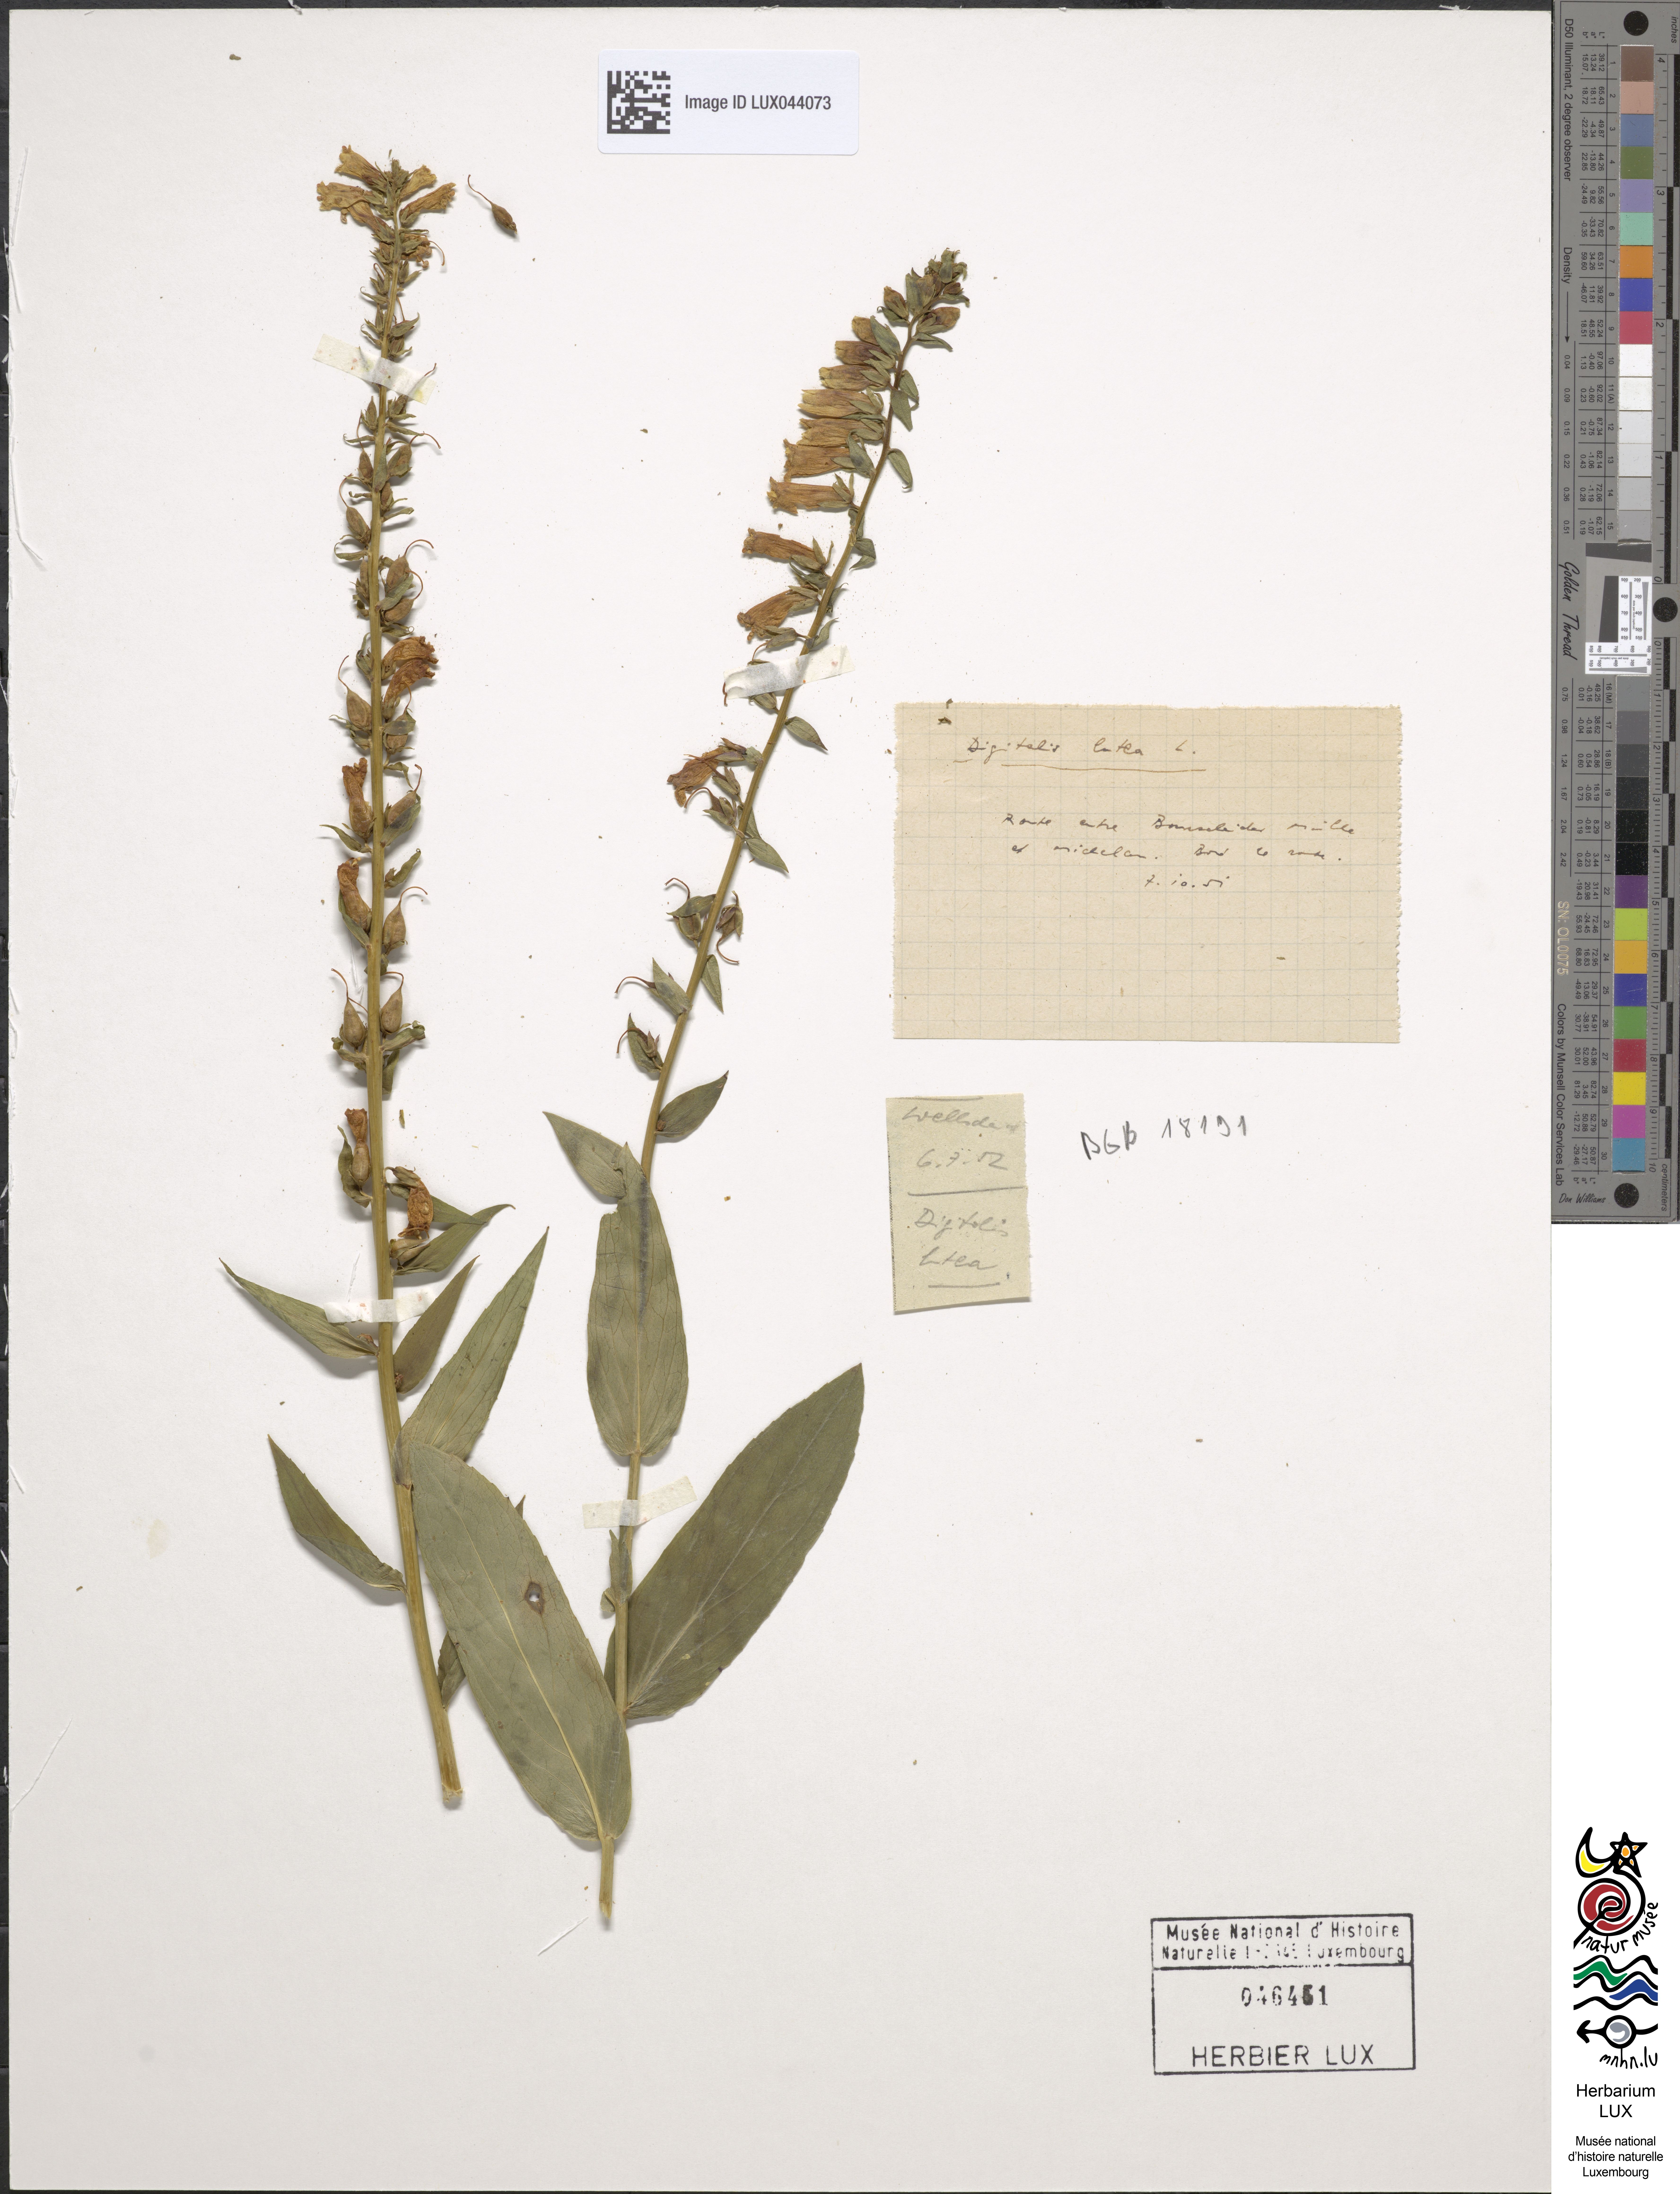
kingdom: Plantae
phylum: Tracheophyta
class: Magnoliopsida
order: Lamiales
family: Plantaginaceae
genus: Digitalis
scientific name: Digitalis lutea
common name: Straw foxglove
